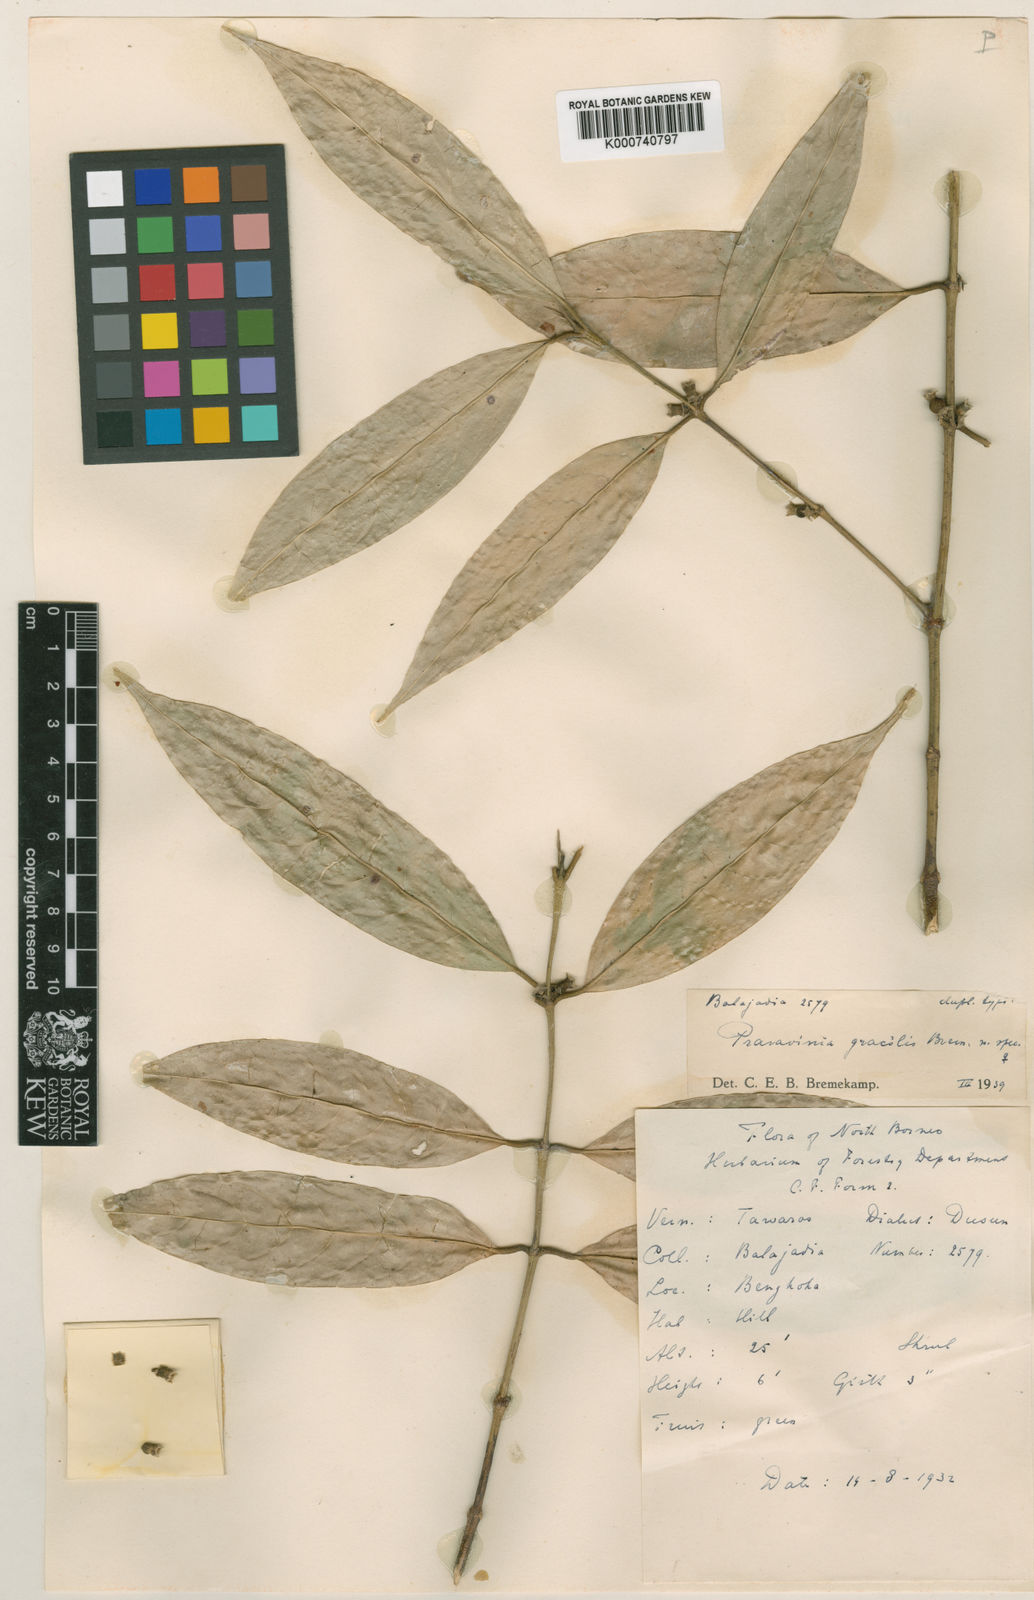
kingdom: Plantae
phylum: Tracheophyta
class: Magnoliopsida
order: Gentianales
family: Rubiaceae
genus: Praravinia
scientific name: Praravinia gracilis
